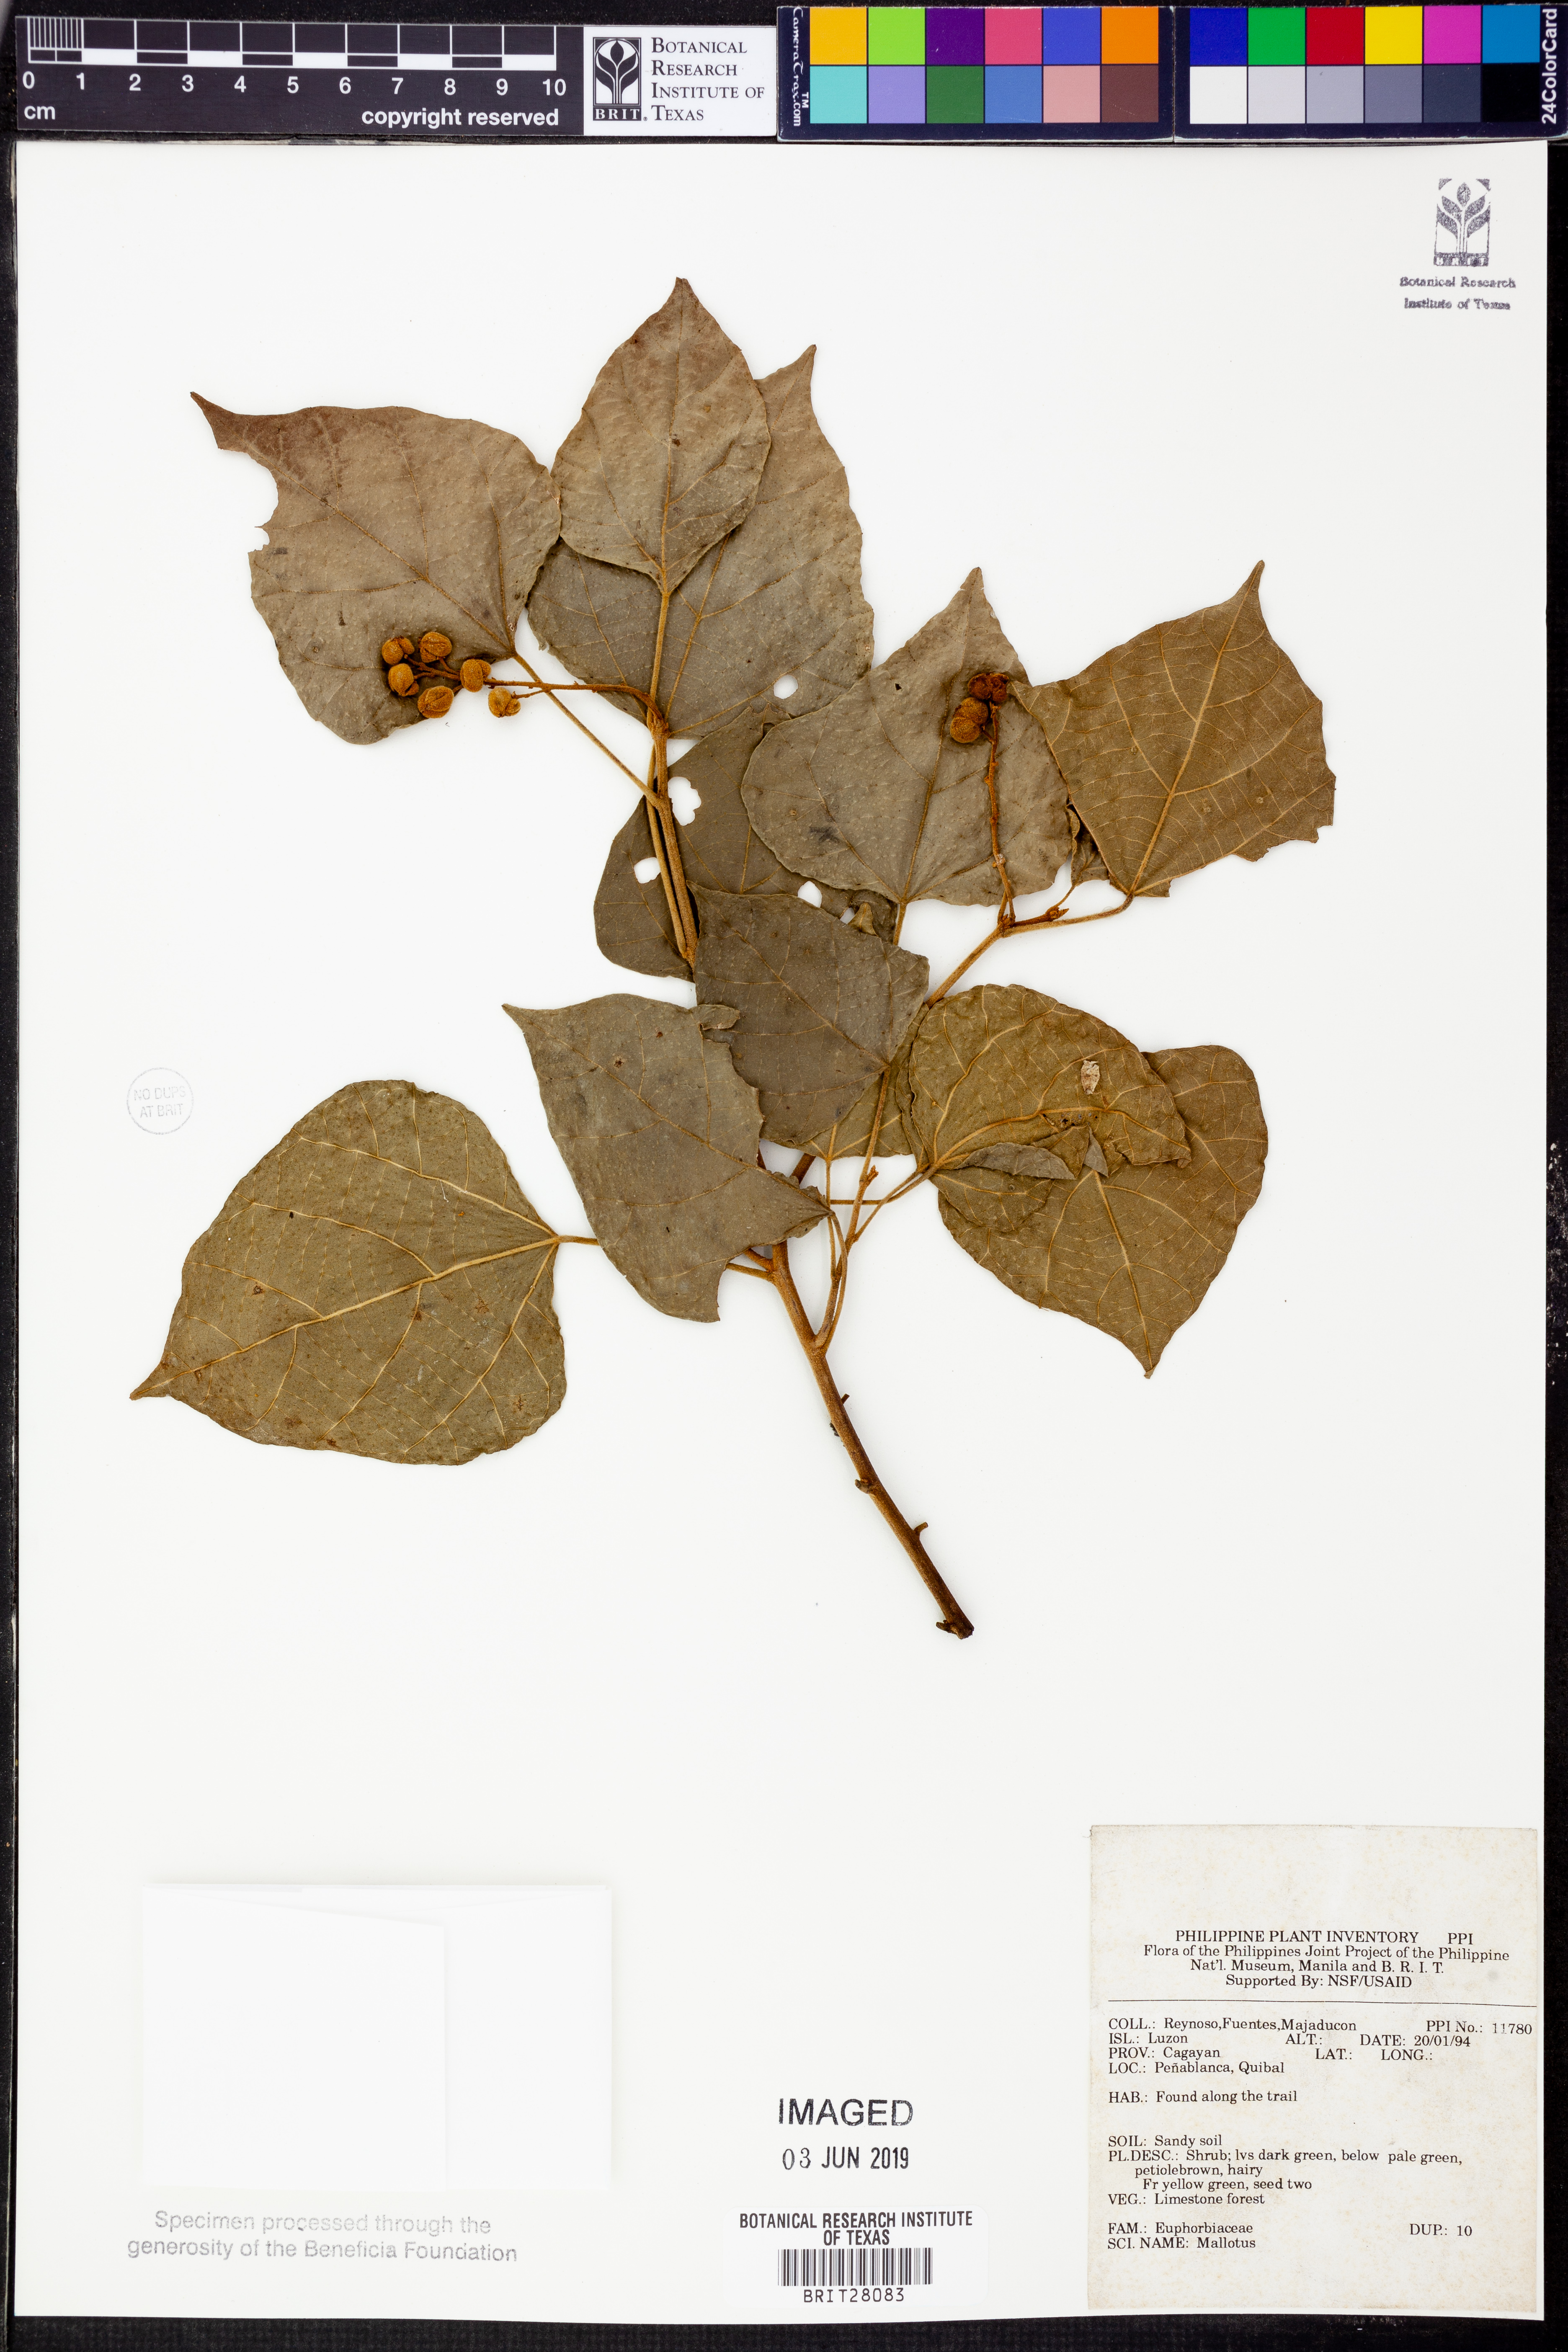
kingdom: Plantae
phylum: Tracheophyta
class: Magnoliopsida
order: Malpighiales
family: Euphorbiaceae
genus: Mallotus
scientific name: Mallotus
